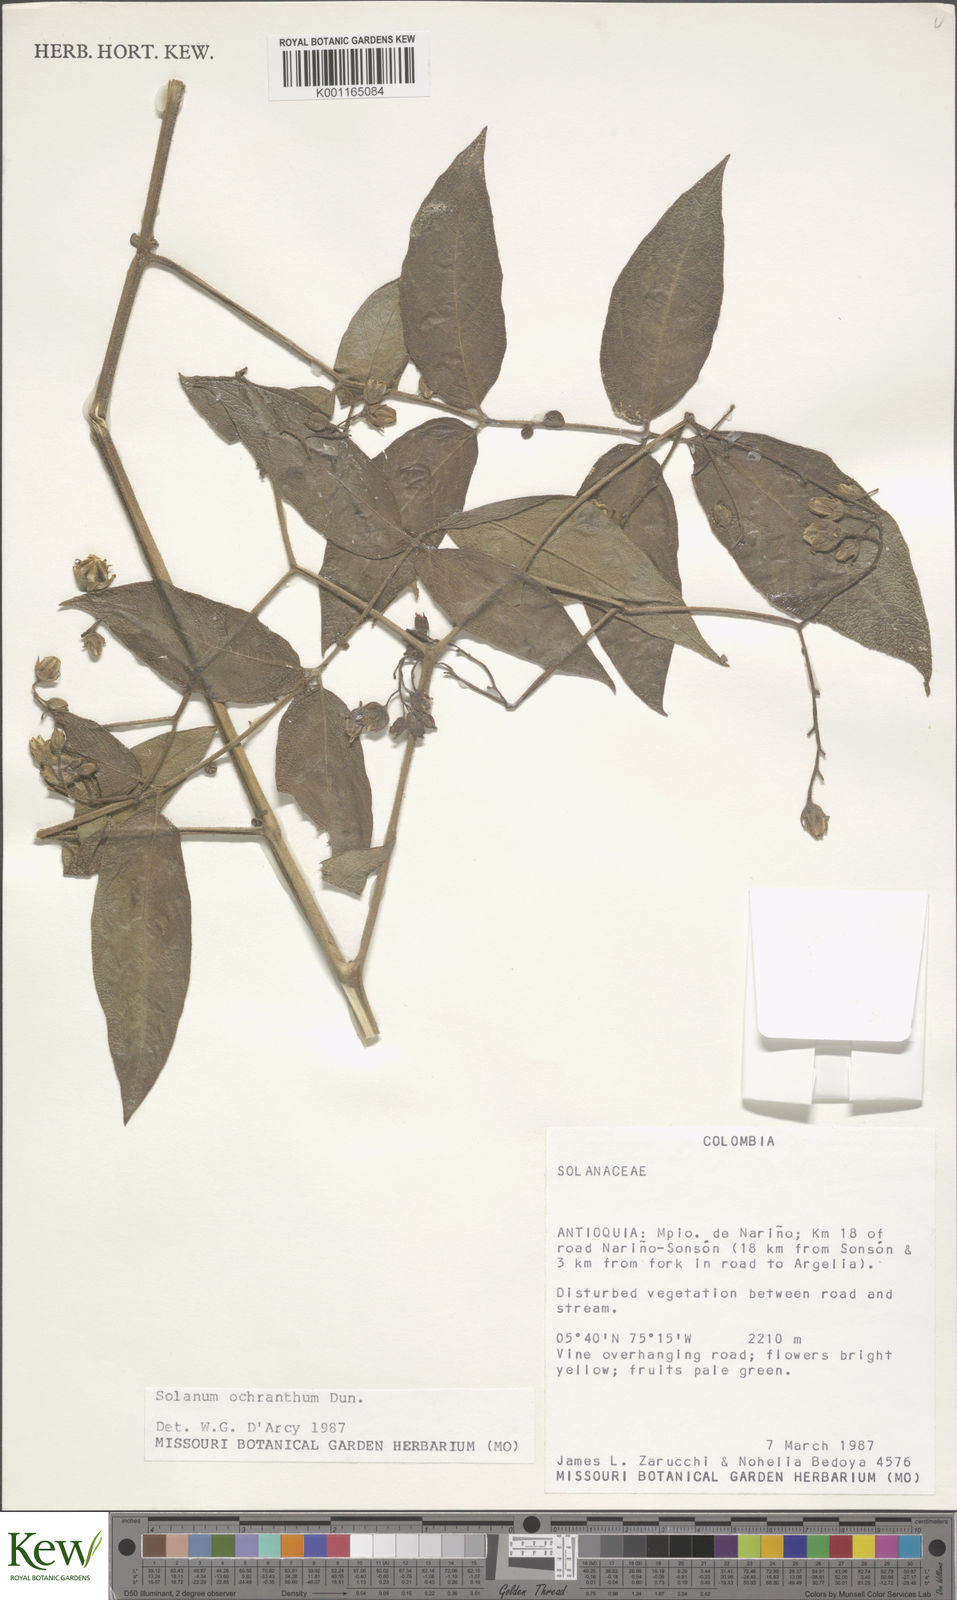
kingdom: Plantae
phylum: Tracheophyta
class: Magnoliopsida
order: Solanales
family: Solanaceae
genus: Solanum
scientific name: Solanum ochranthum
